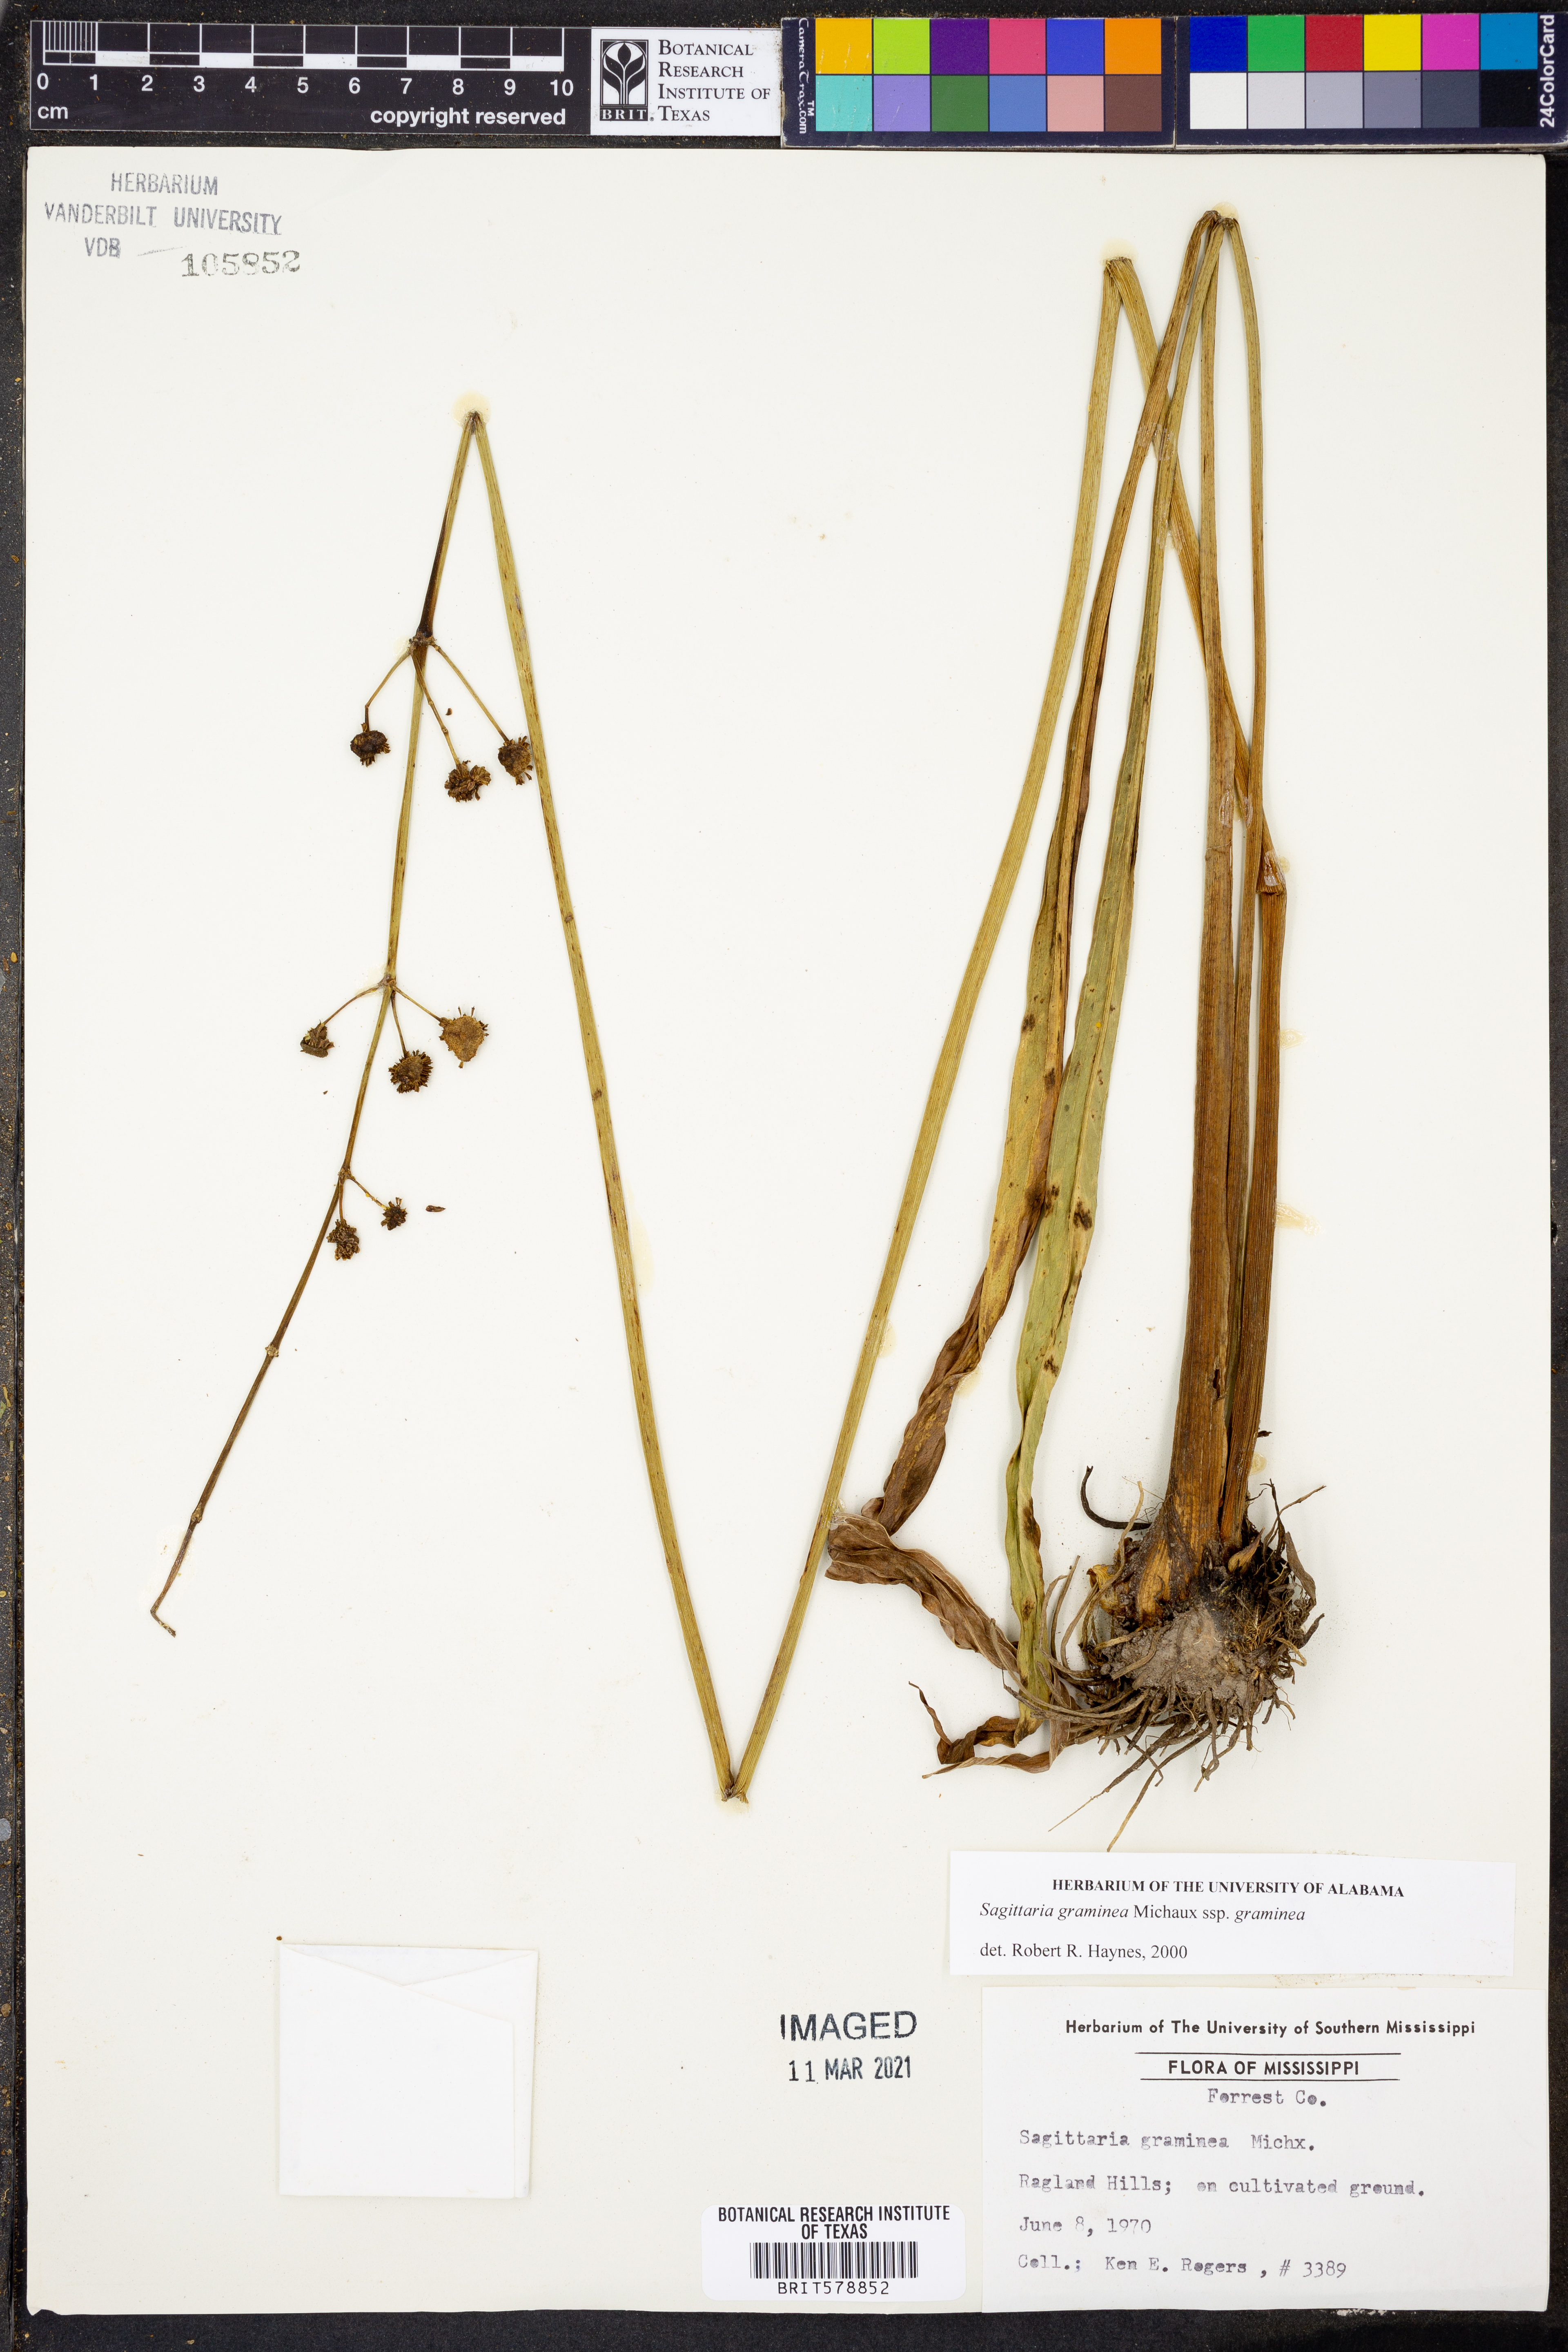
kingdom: Plantae
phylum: Tracheophyta
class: Liliopsida
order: Alismatales
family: Alismataceae
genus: Sagittaria
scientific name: Sagittaria graminea
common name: Grass-leaved arrowhead
